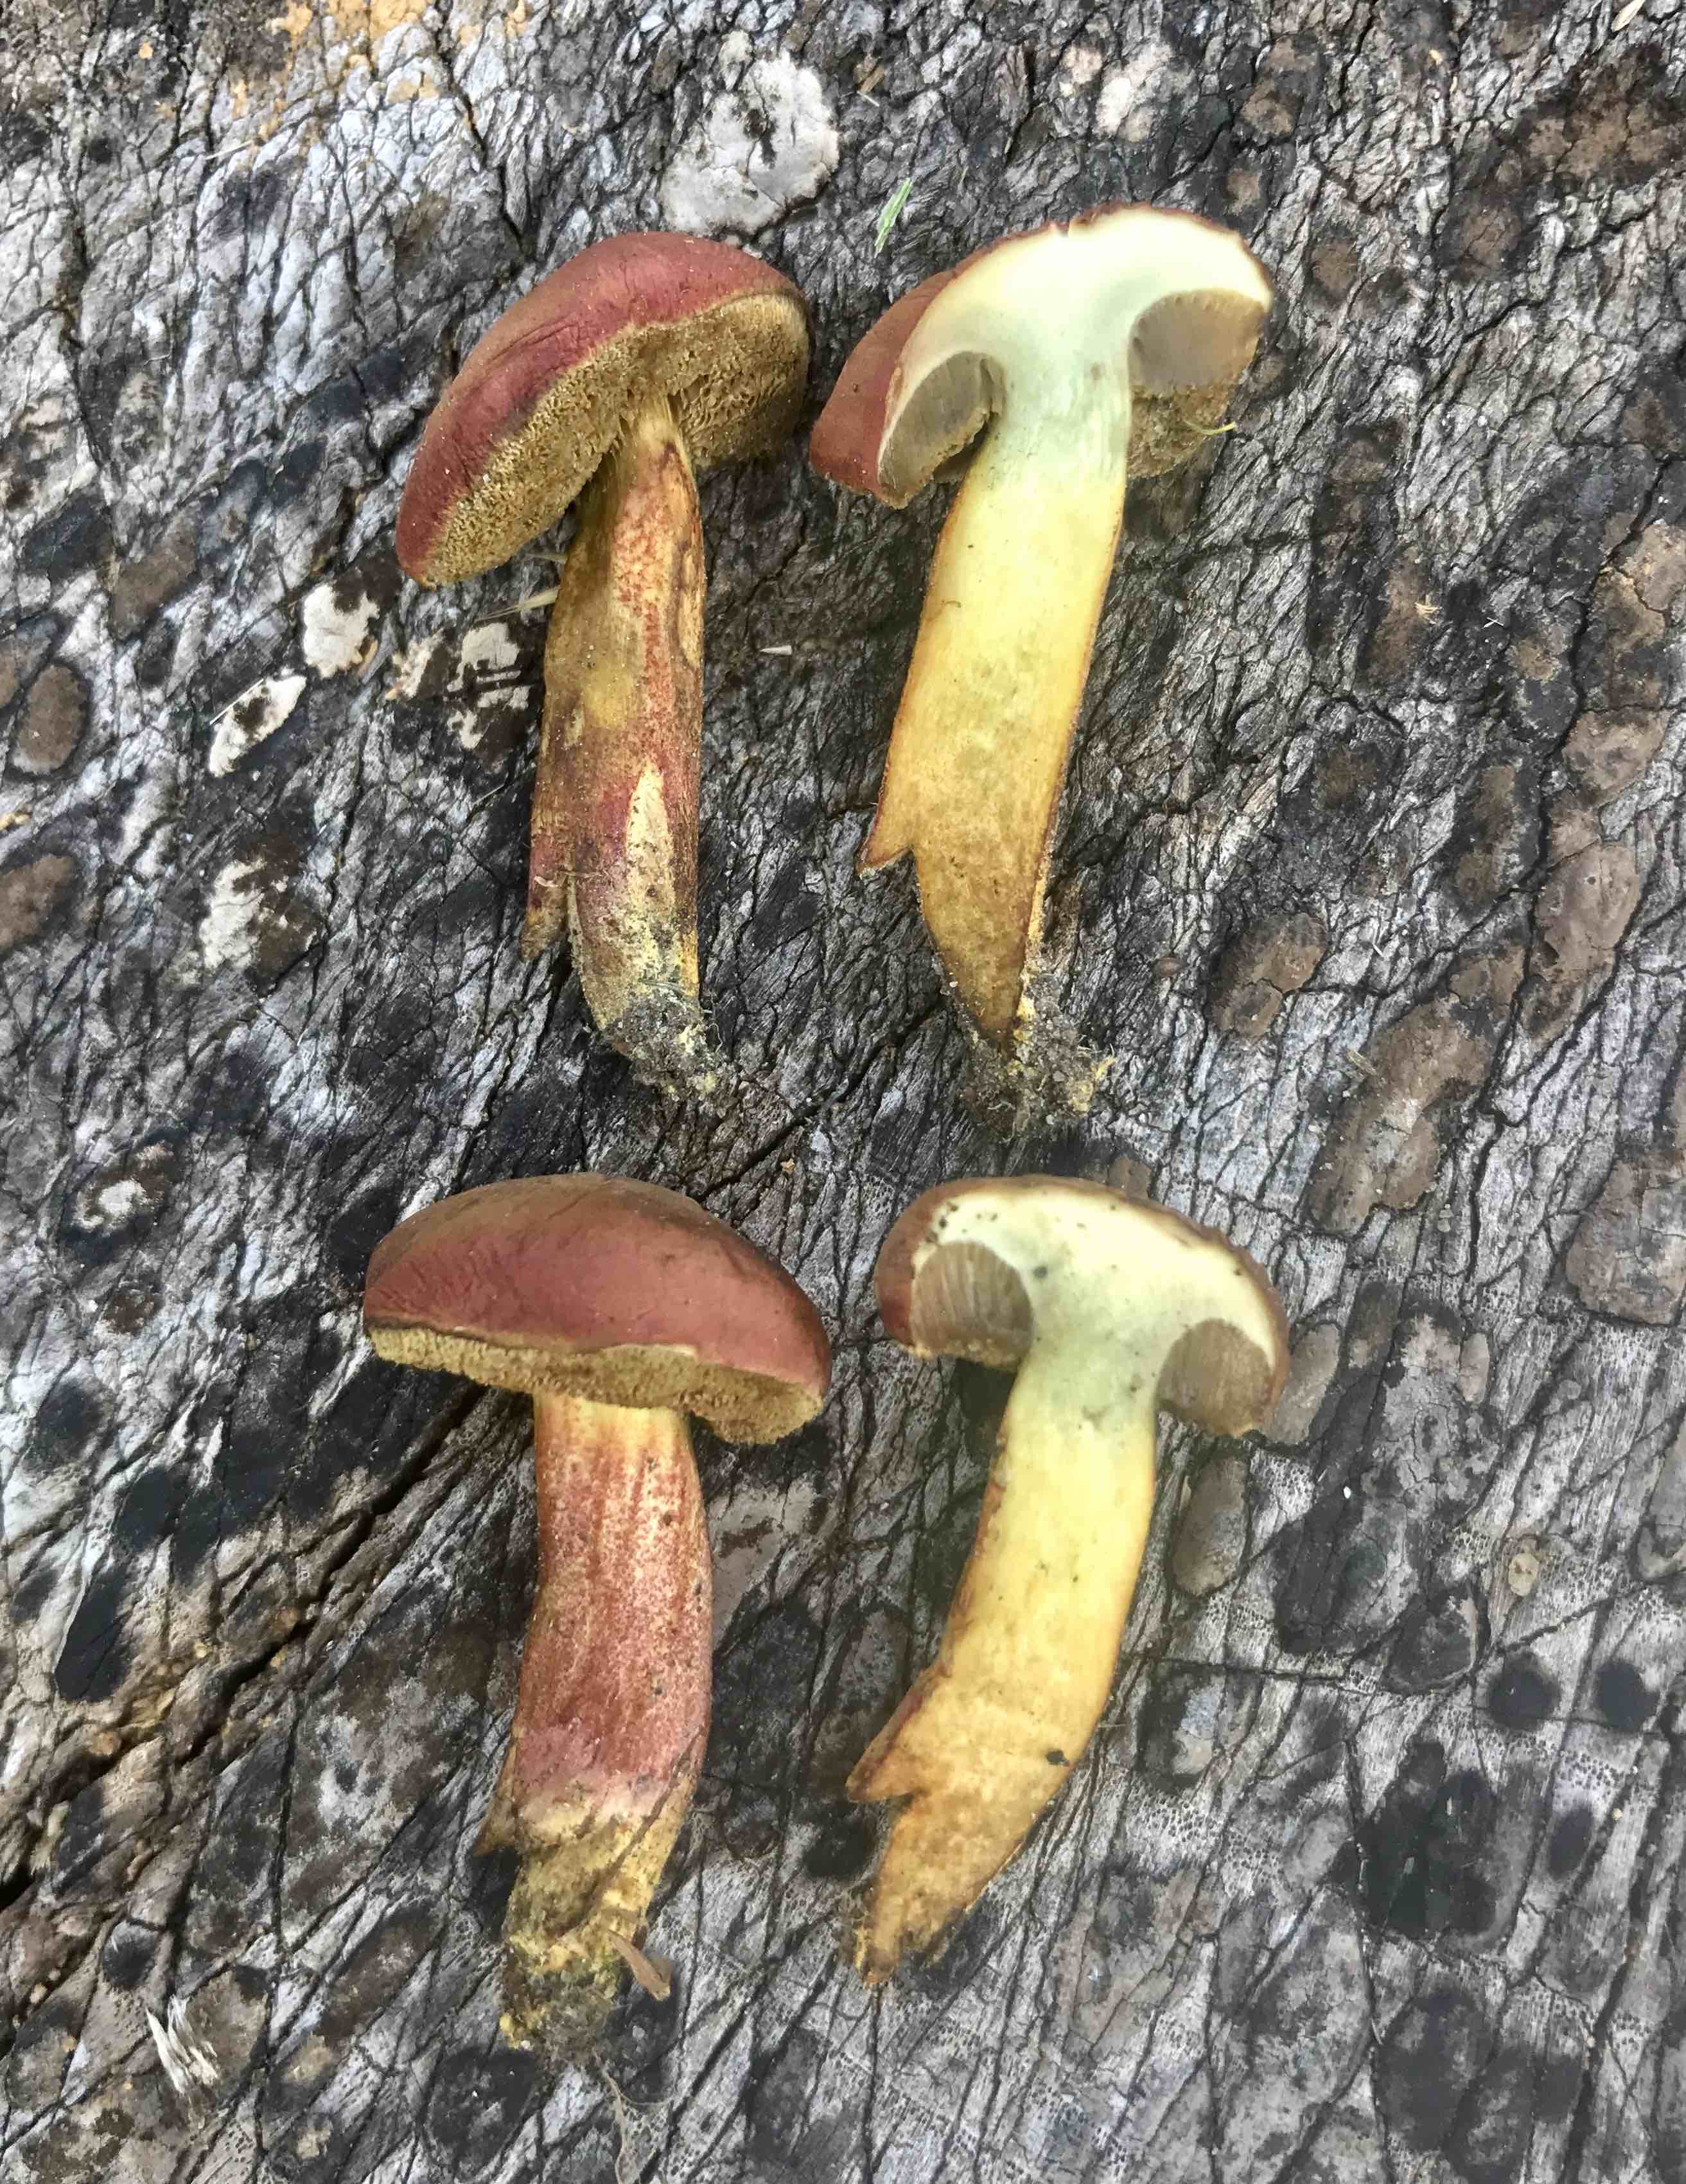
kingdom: Fungi
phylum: Basidiomycota
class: Agaricomycetes
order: Boletales
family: Boletaceae
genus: Hortiboletus
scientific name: Hortiboletus rubellus
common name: blodrød rørhat
